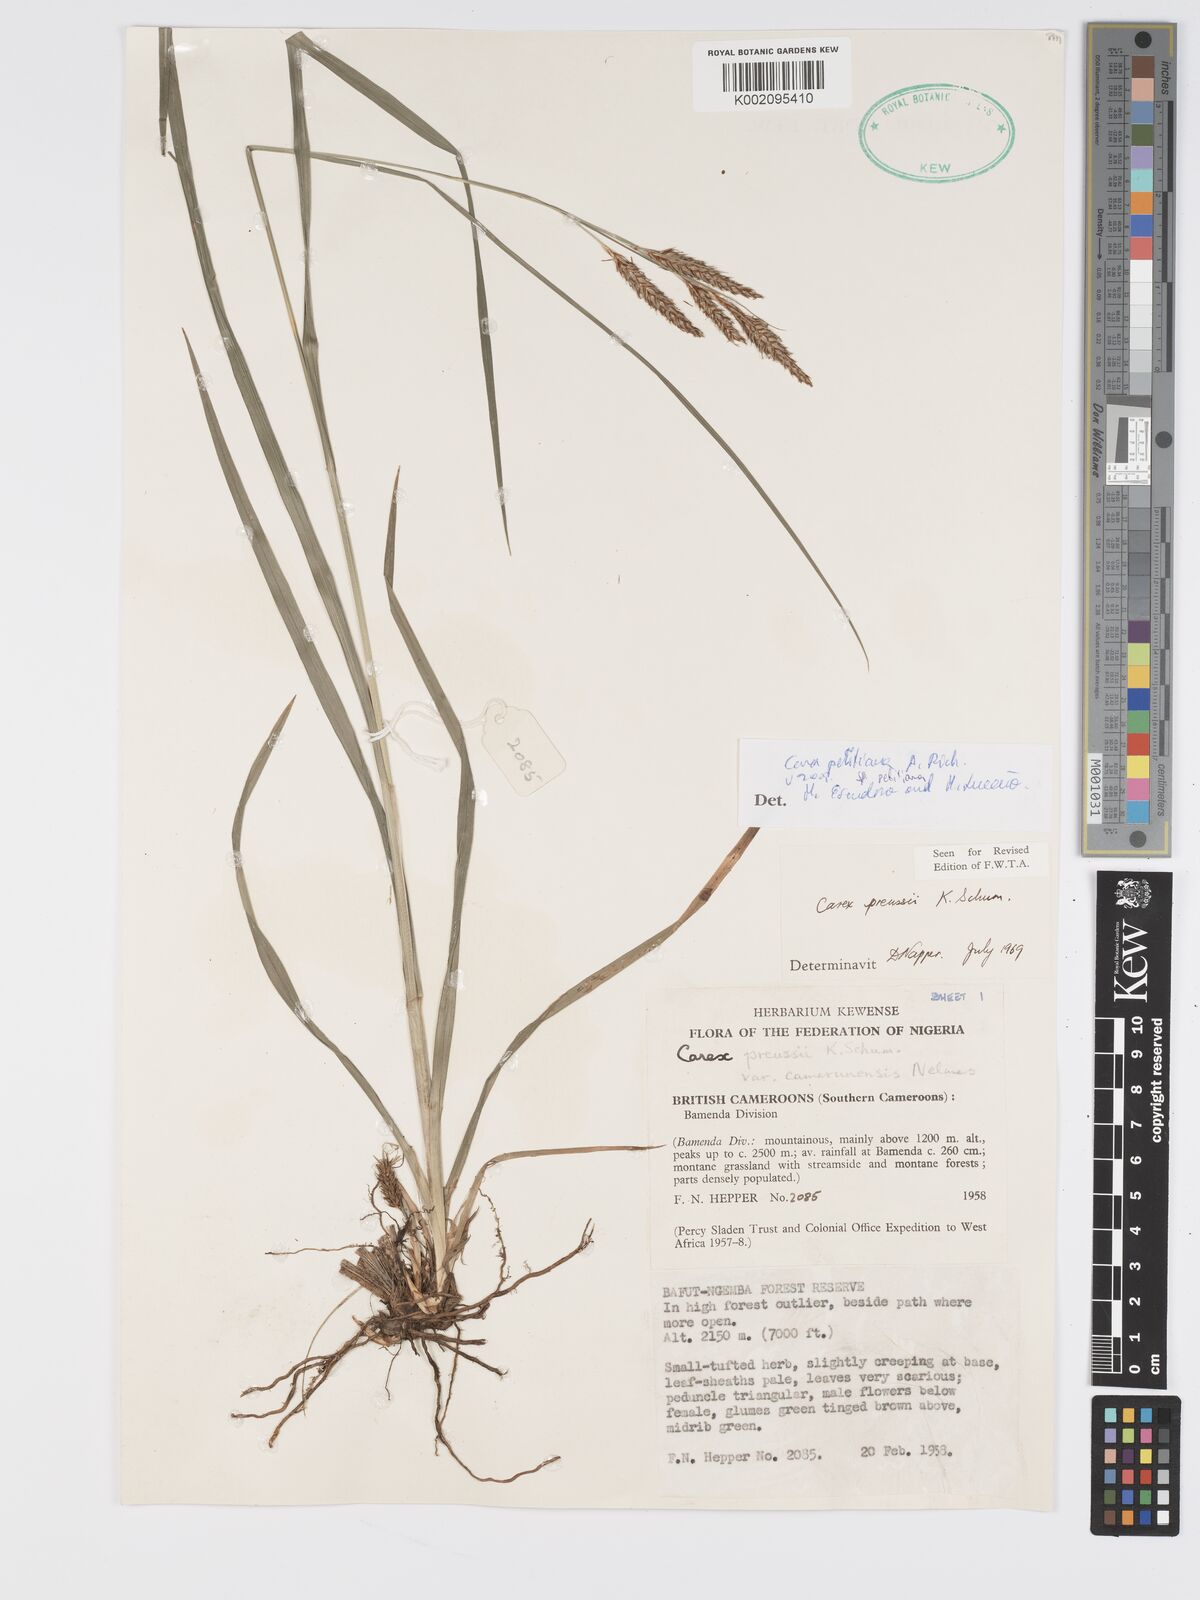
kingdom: Plantae
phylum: Tracheophyta
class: Liliopsida
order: Poales
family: Cyperaceae
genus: Carex
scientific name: Carex petitiana
